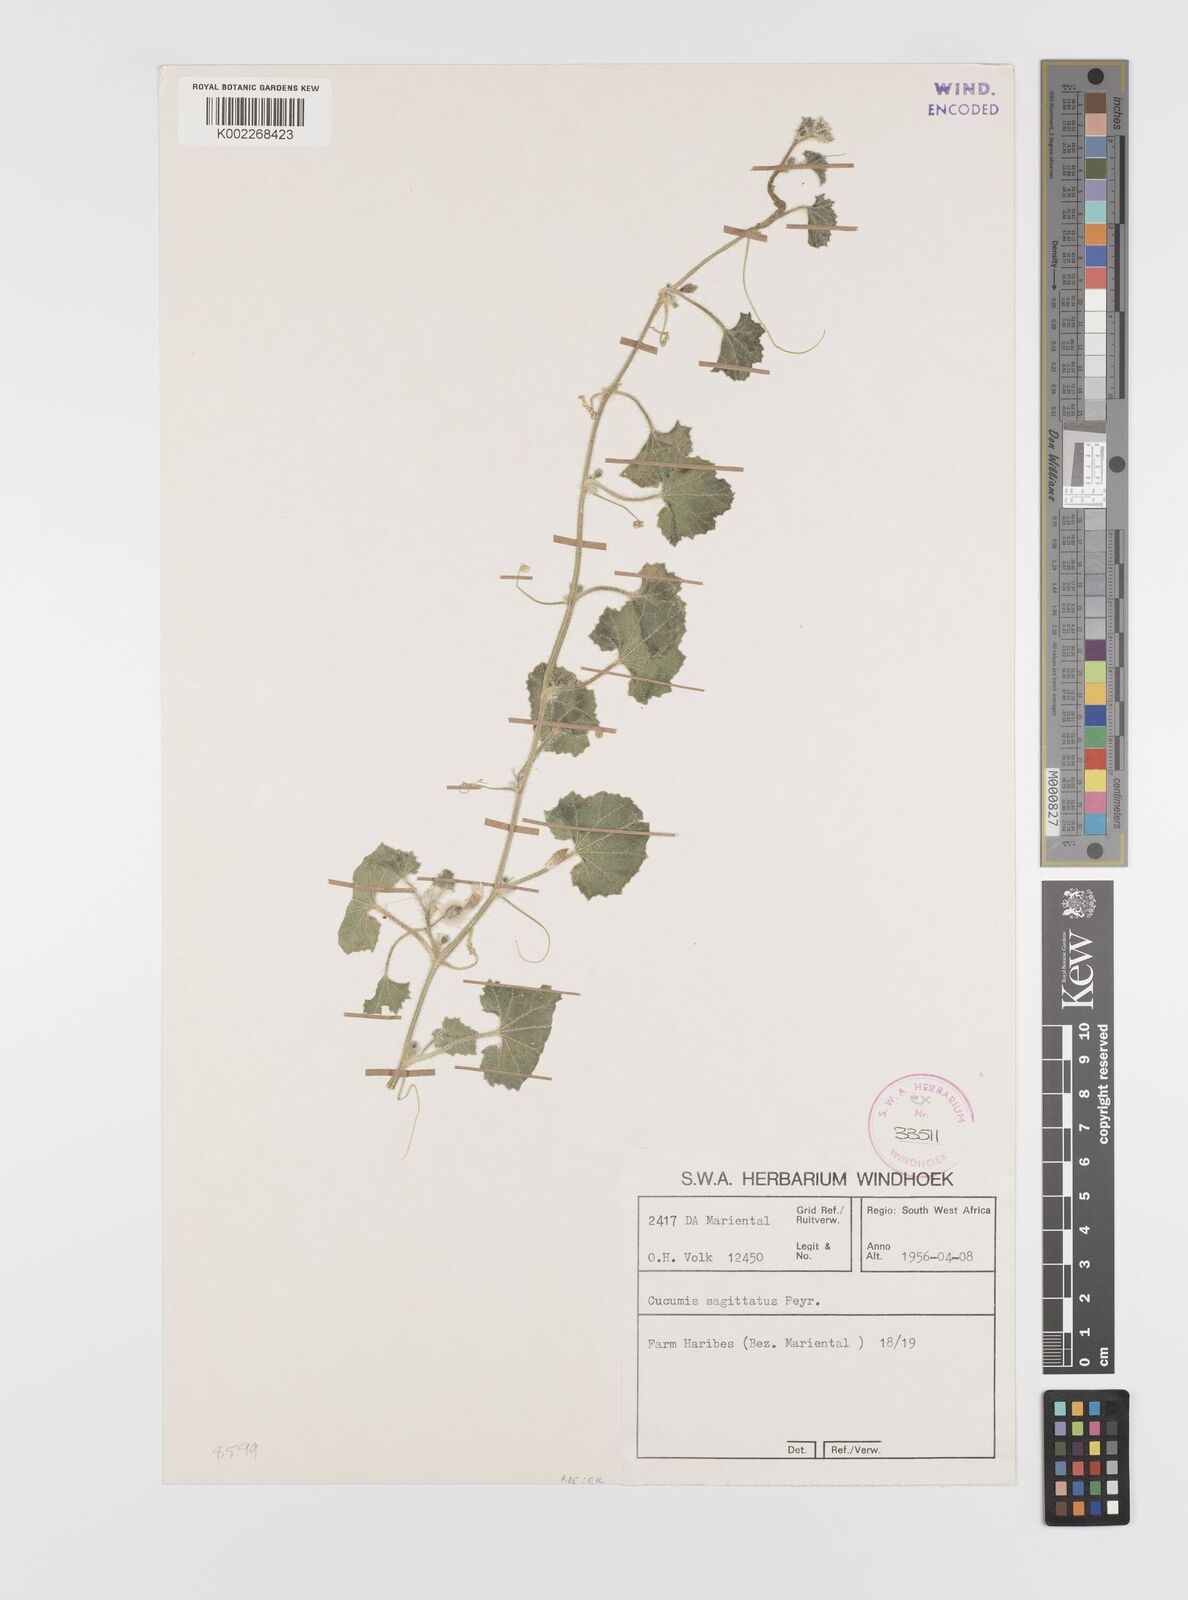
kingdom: Plantae
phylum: Tracheophyta
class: Magnoliopsida
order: Cucurbitales
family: Cucurbitaceae
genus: Cucumis
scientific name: Cucumis sagittatus
